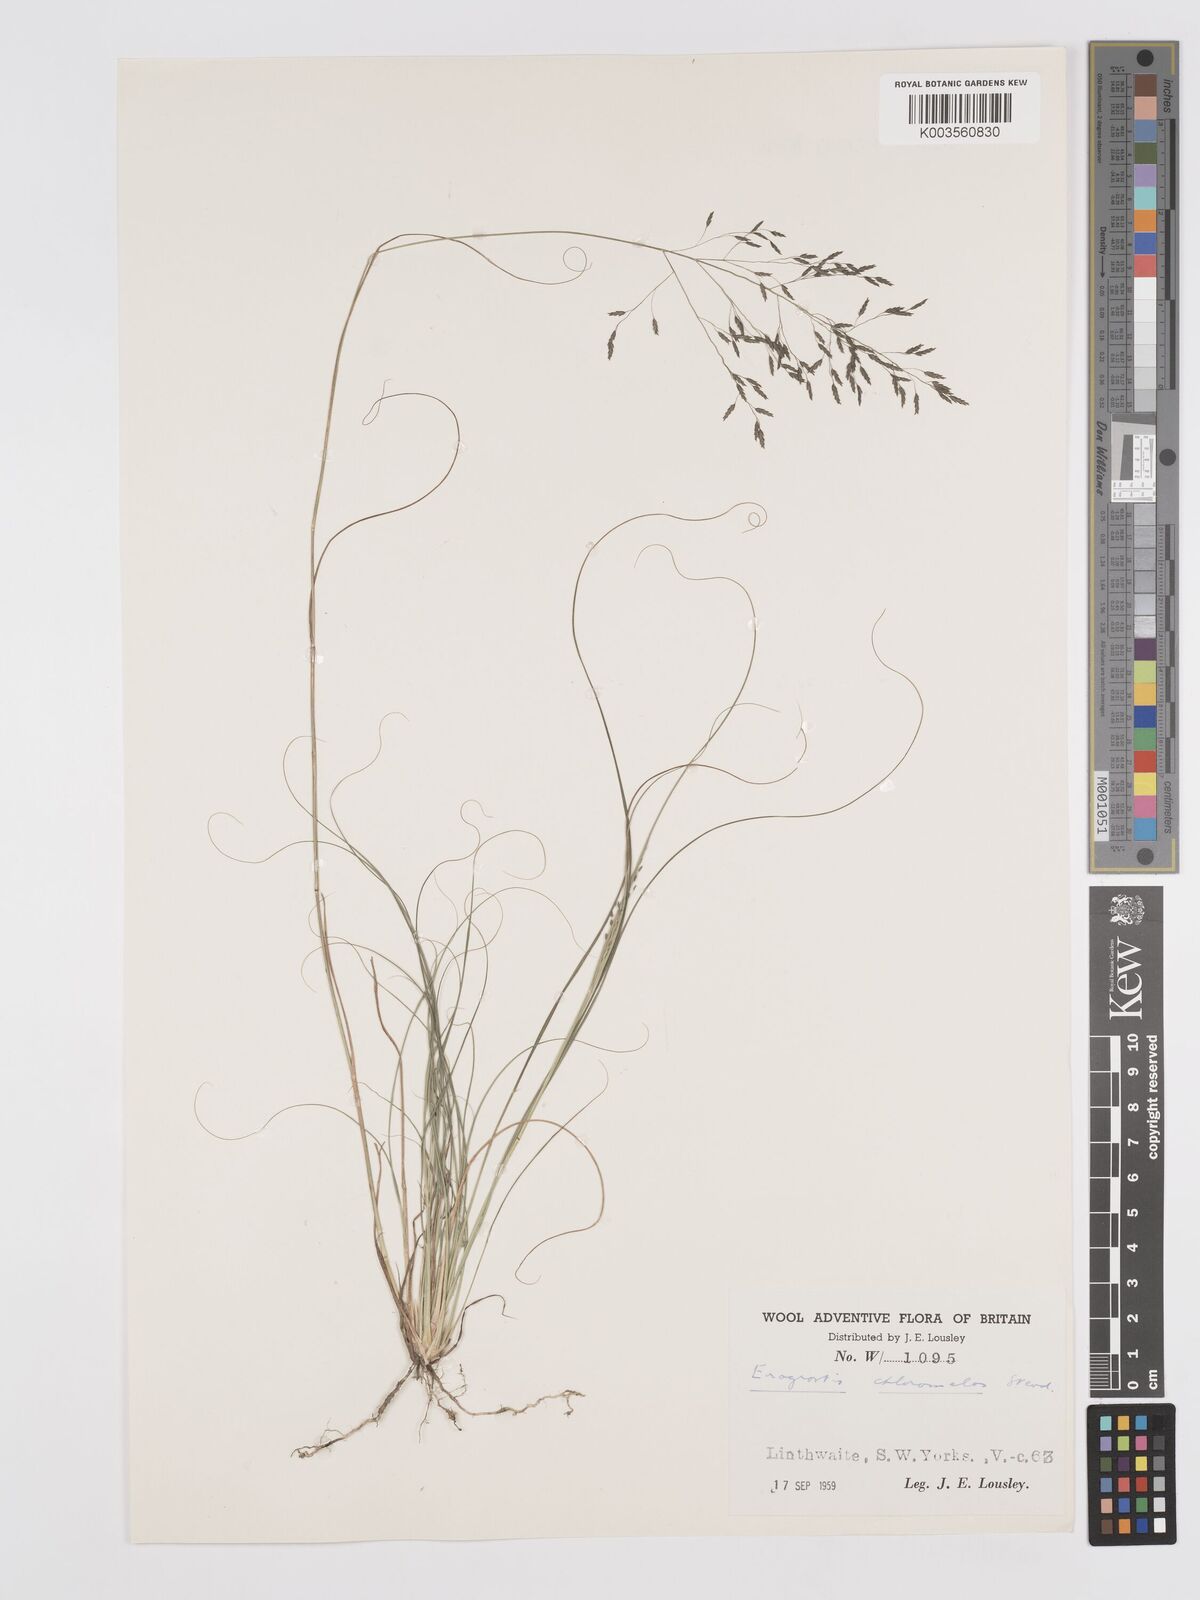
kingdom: Plantae
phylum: Tracheophyta
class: Liliopsida
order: Poales
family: Poaceae
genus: Eragrostis
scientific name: Eragrostis curvula
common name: African love-grass
